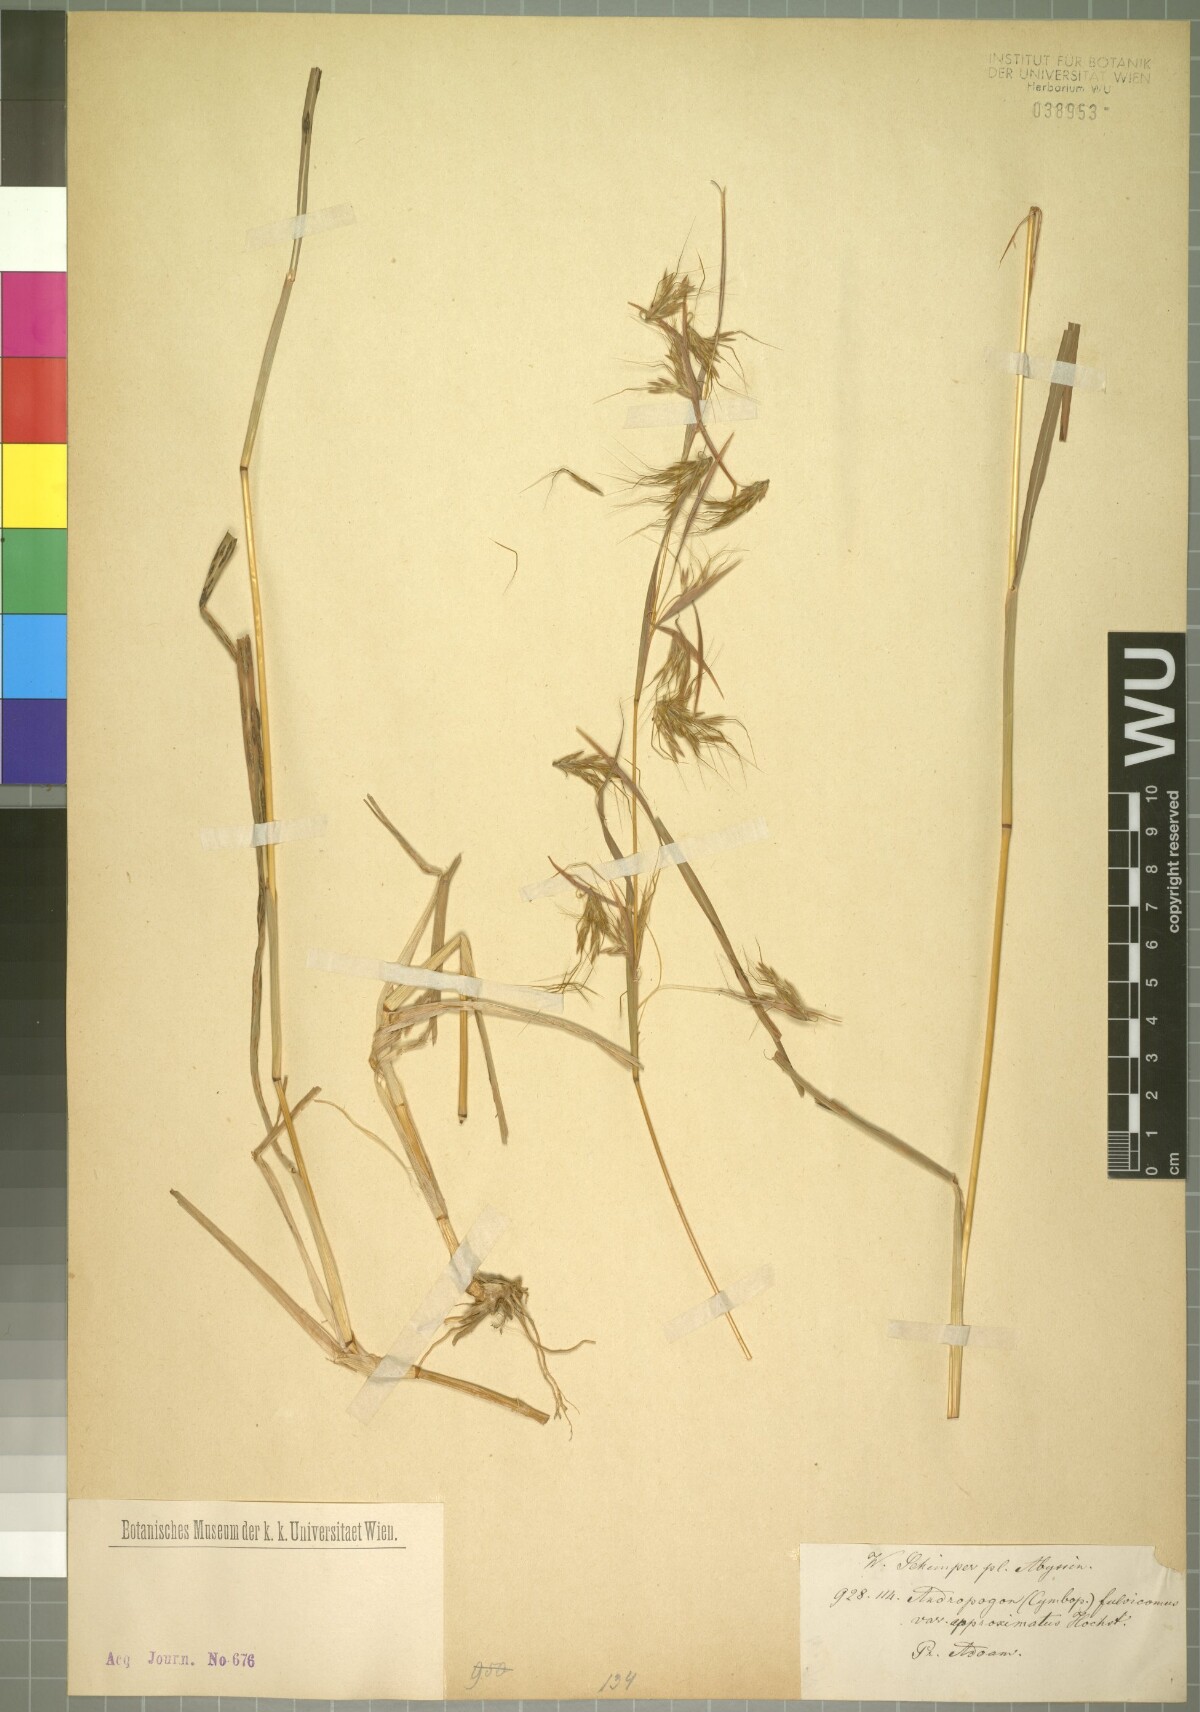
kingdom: Plantae
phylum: Tracheophyta
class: Liliopsida
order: Poales
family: Poaceae
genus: Hyparrhenia
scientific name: Hyparrhenia rufa
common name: Jaraguagrass
